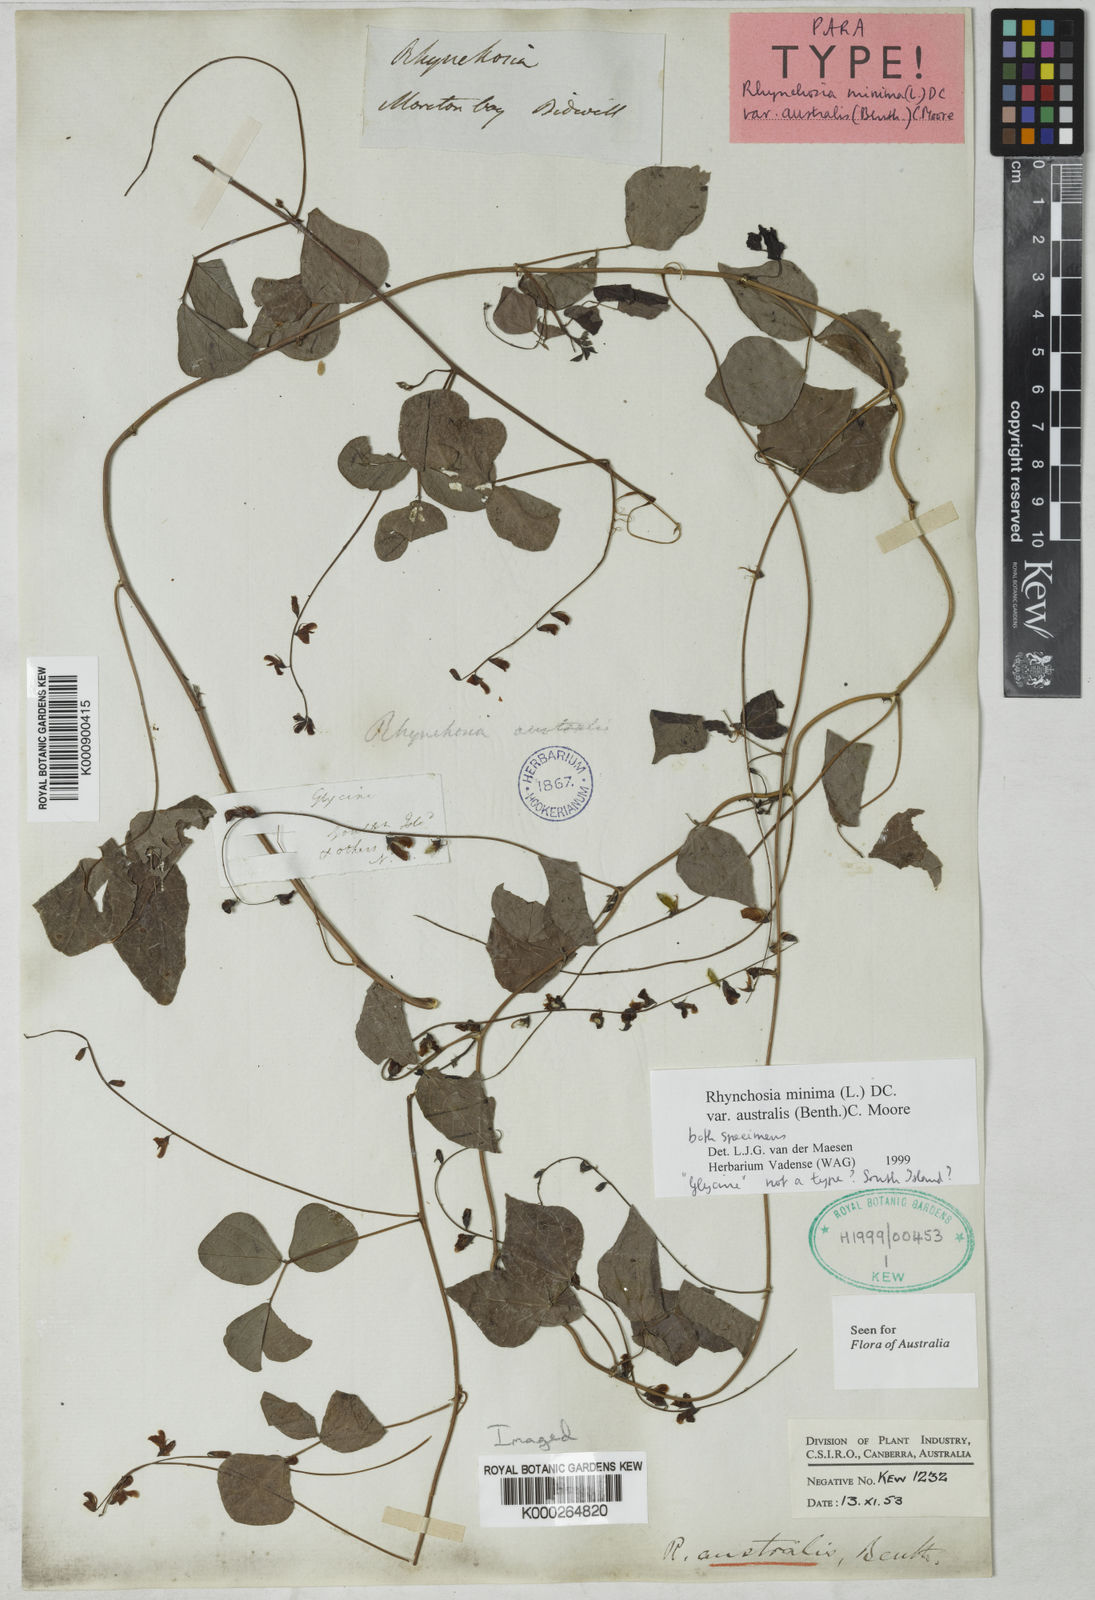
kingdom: Plantae
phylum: Tracheophyta
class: Magnoliopsida
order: Fabales
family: Fabaceae
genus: Rhynchosia
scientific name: Rhynchosia australis
